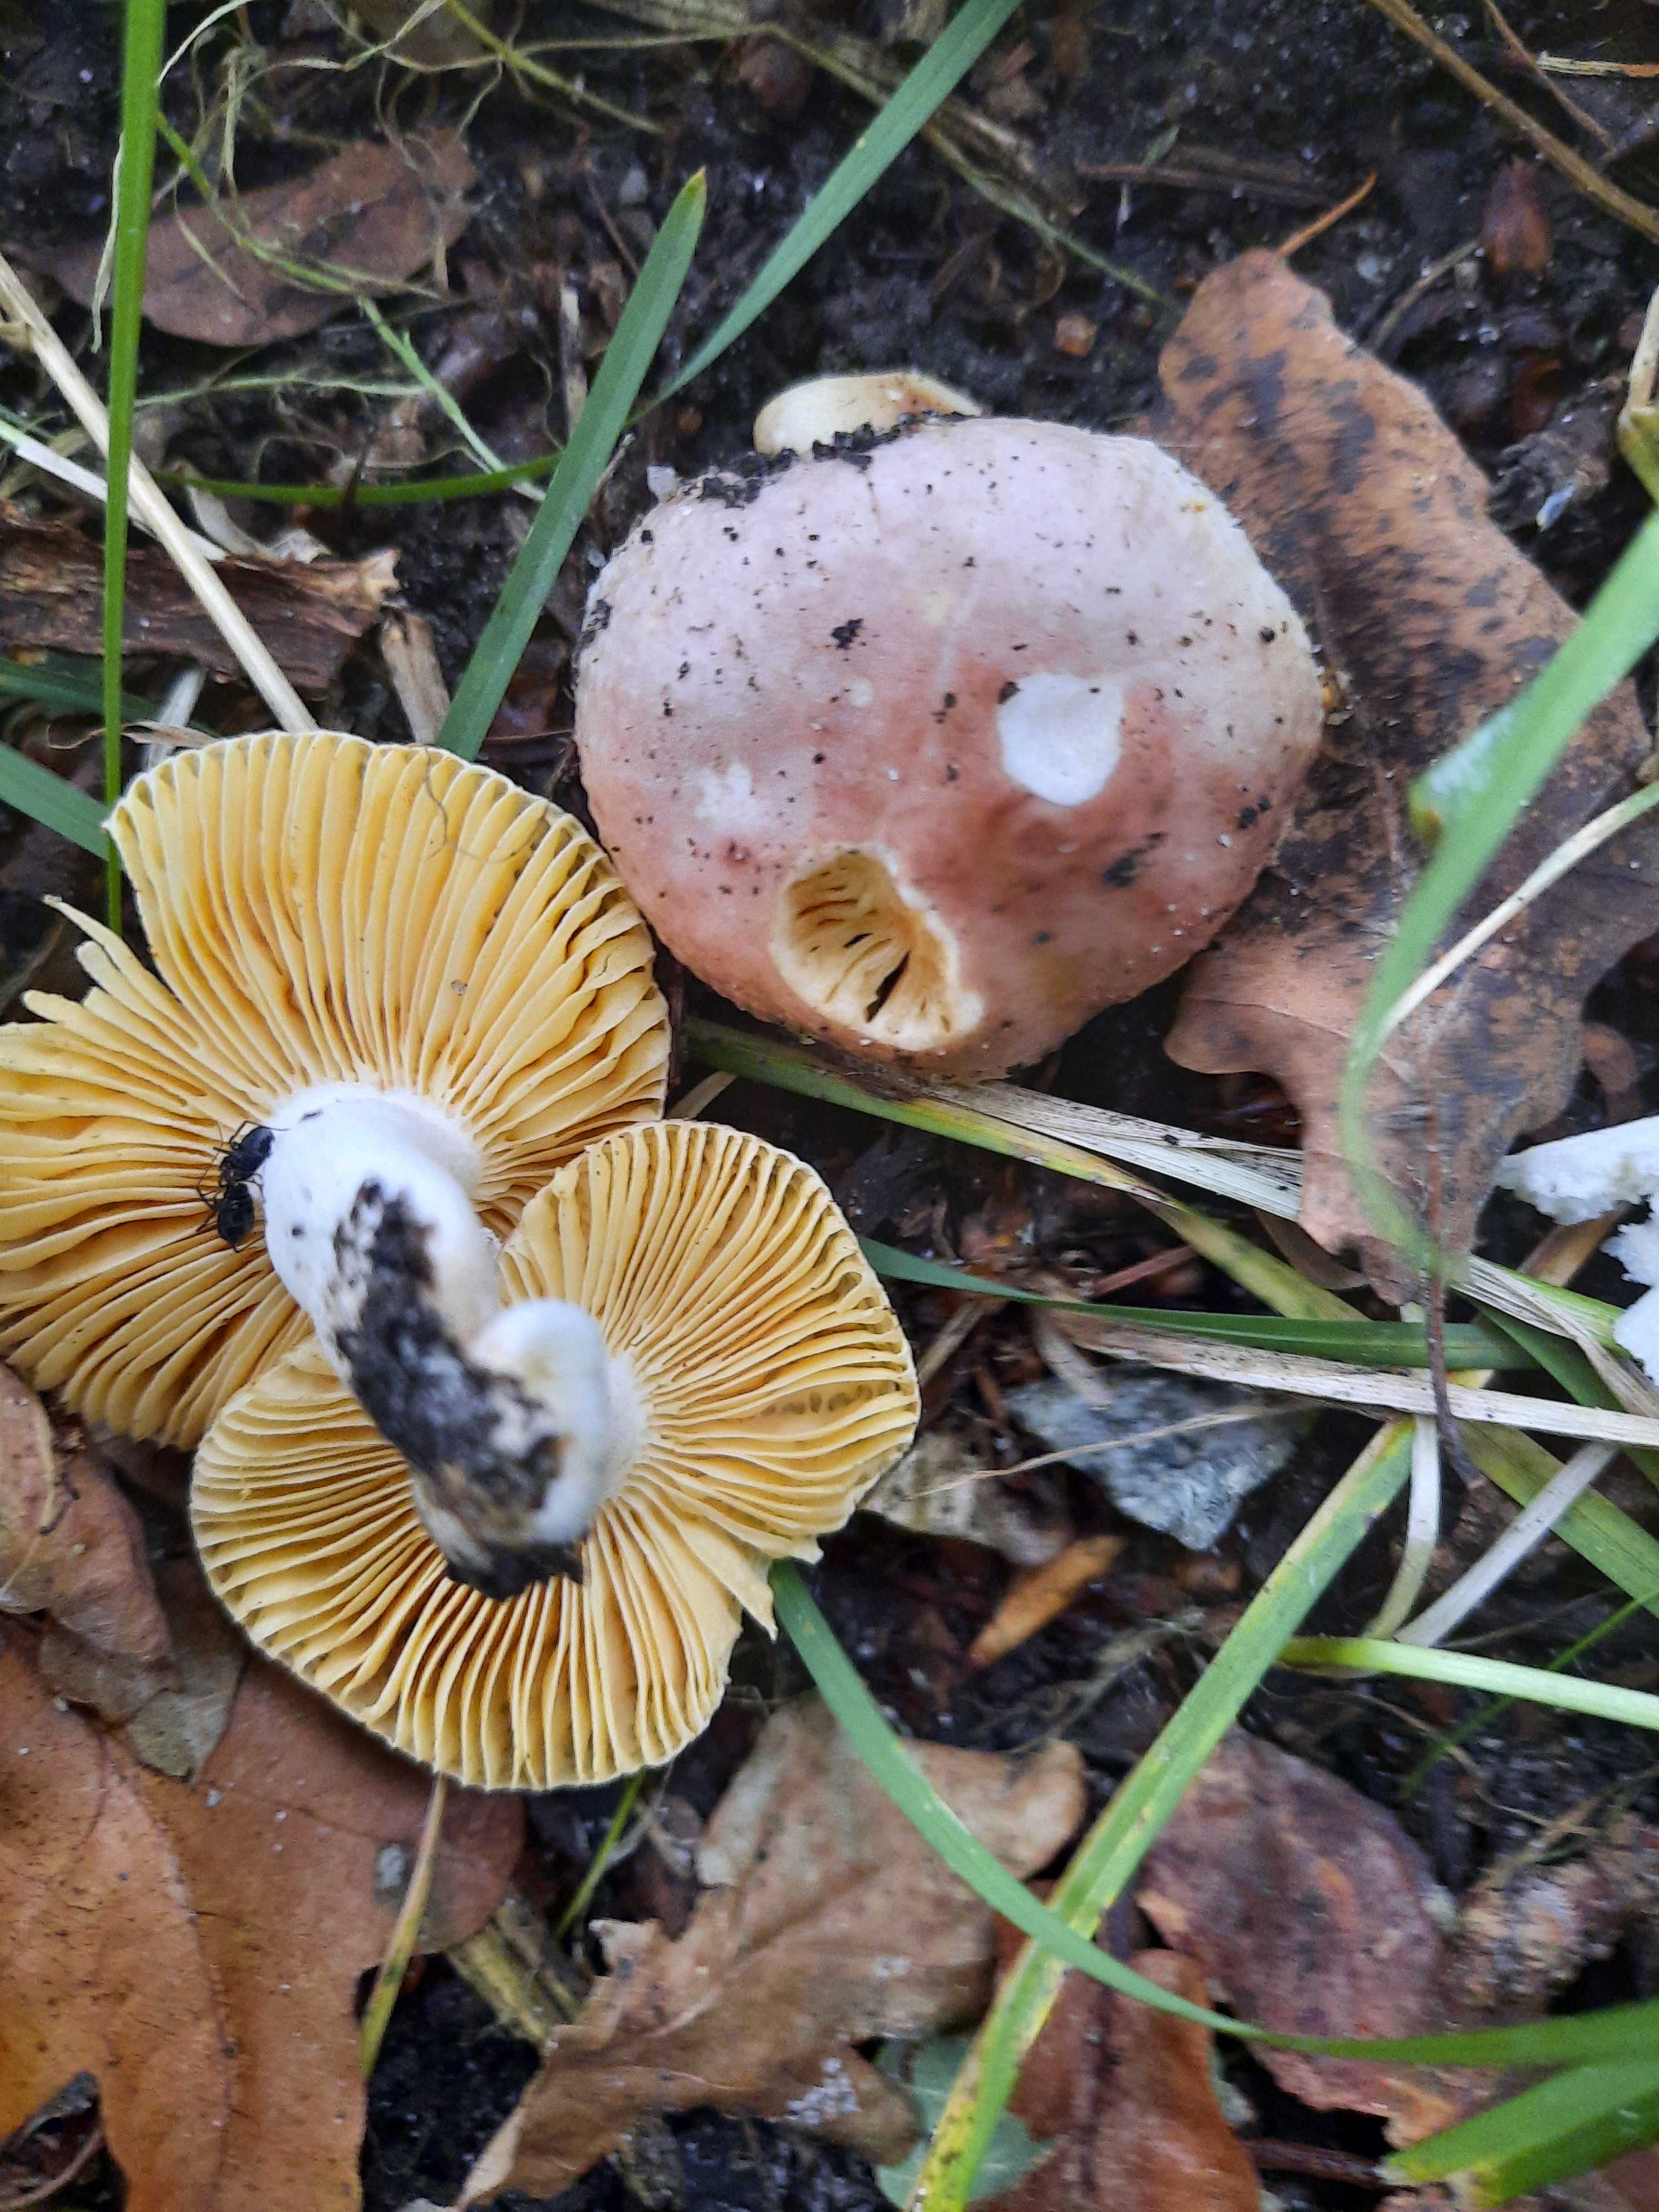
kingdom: Fungi
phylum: Basidiomycota
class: Agaricomycetes
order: Russulales
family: Russulaceae
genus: Russula
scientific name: Russula odorata
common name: duft-skørhat
